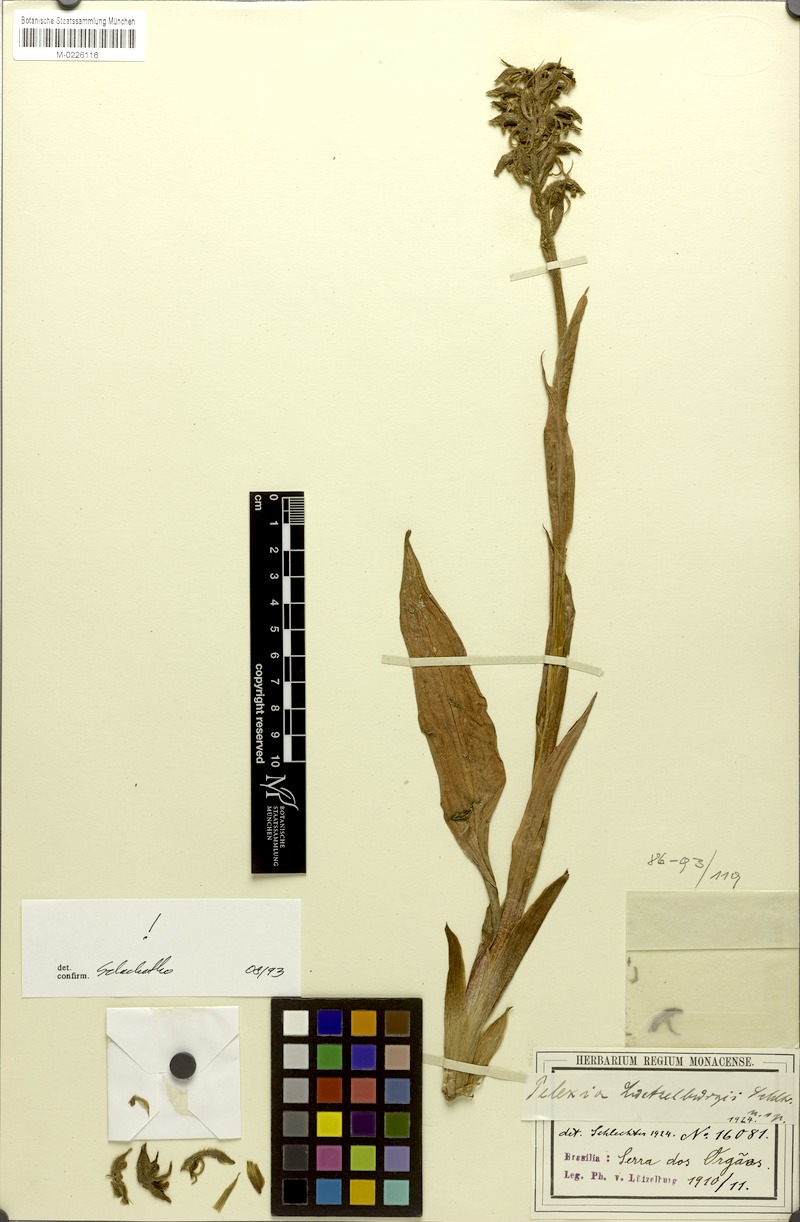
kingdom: Plantae
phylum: Tracheophyta
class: Liliopsida
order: Asparagales
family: Orchidaceae
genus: Pelexia
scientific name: Pelexia luetzelburgii
